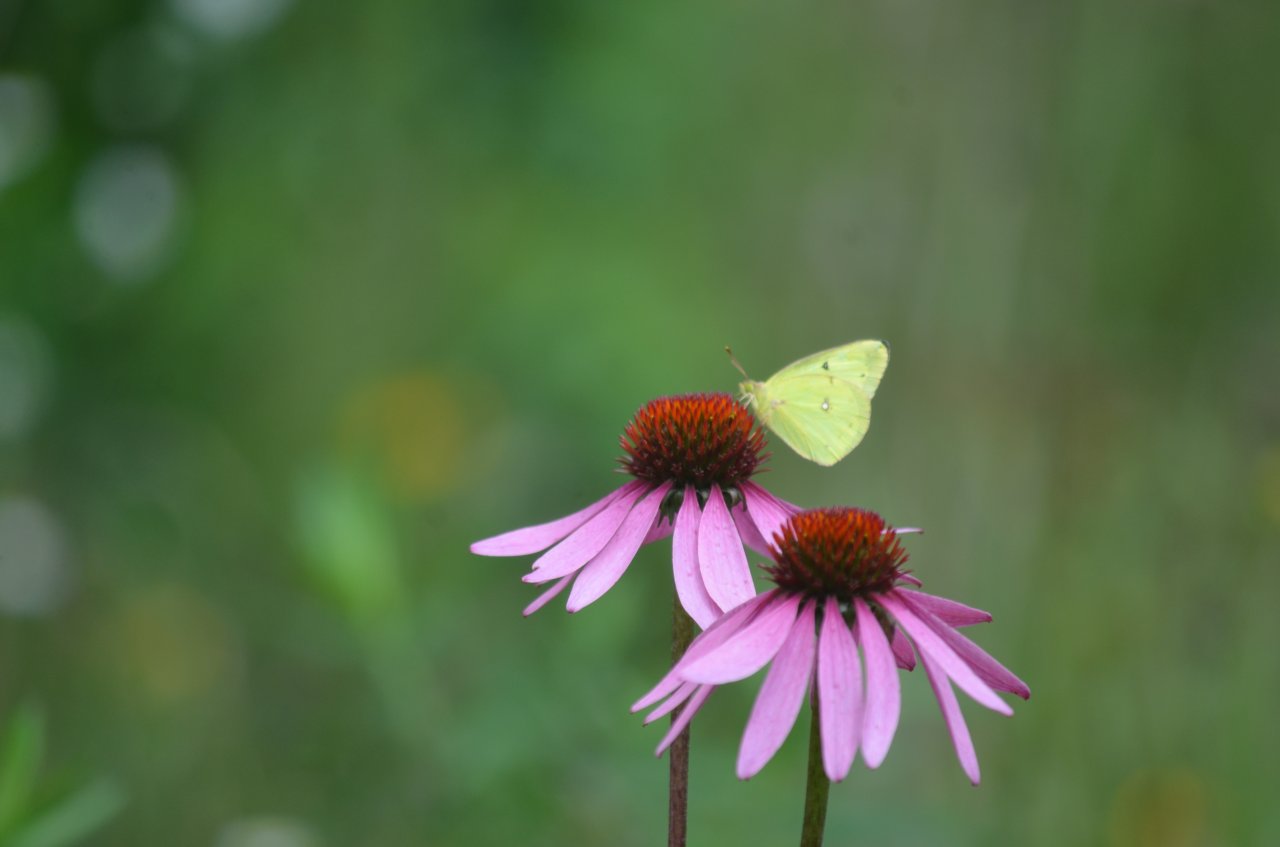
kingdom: Animalia
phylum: Arthropoda
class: Insecta
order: Lepidoptera
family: Pieridae
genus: Colias
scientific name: Colias philodice
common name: Clouded Sulphur
